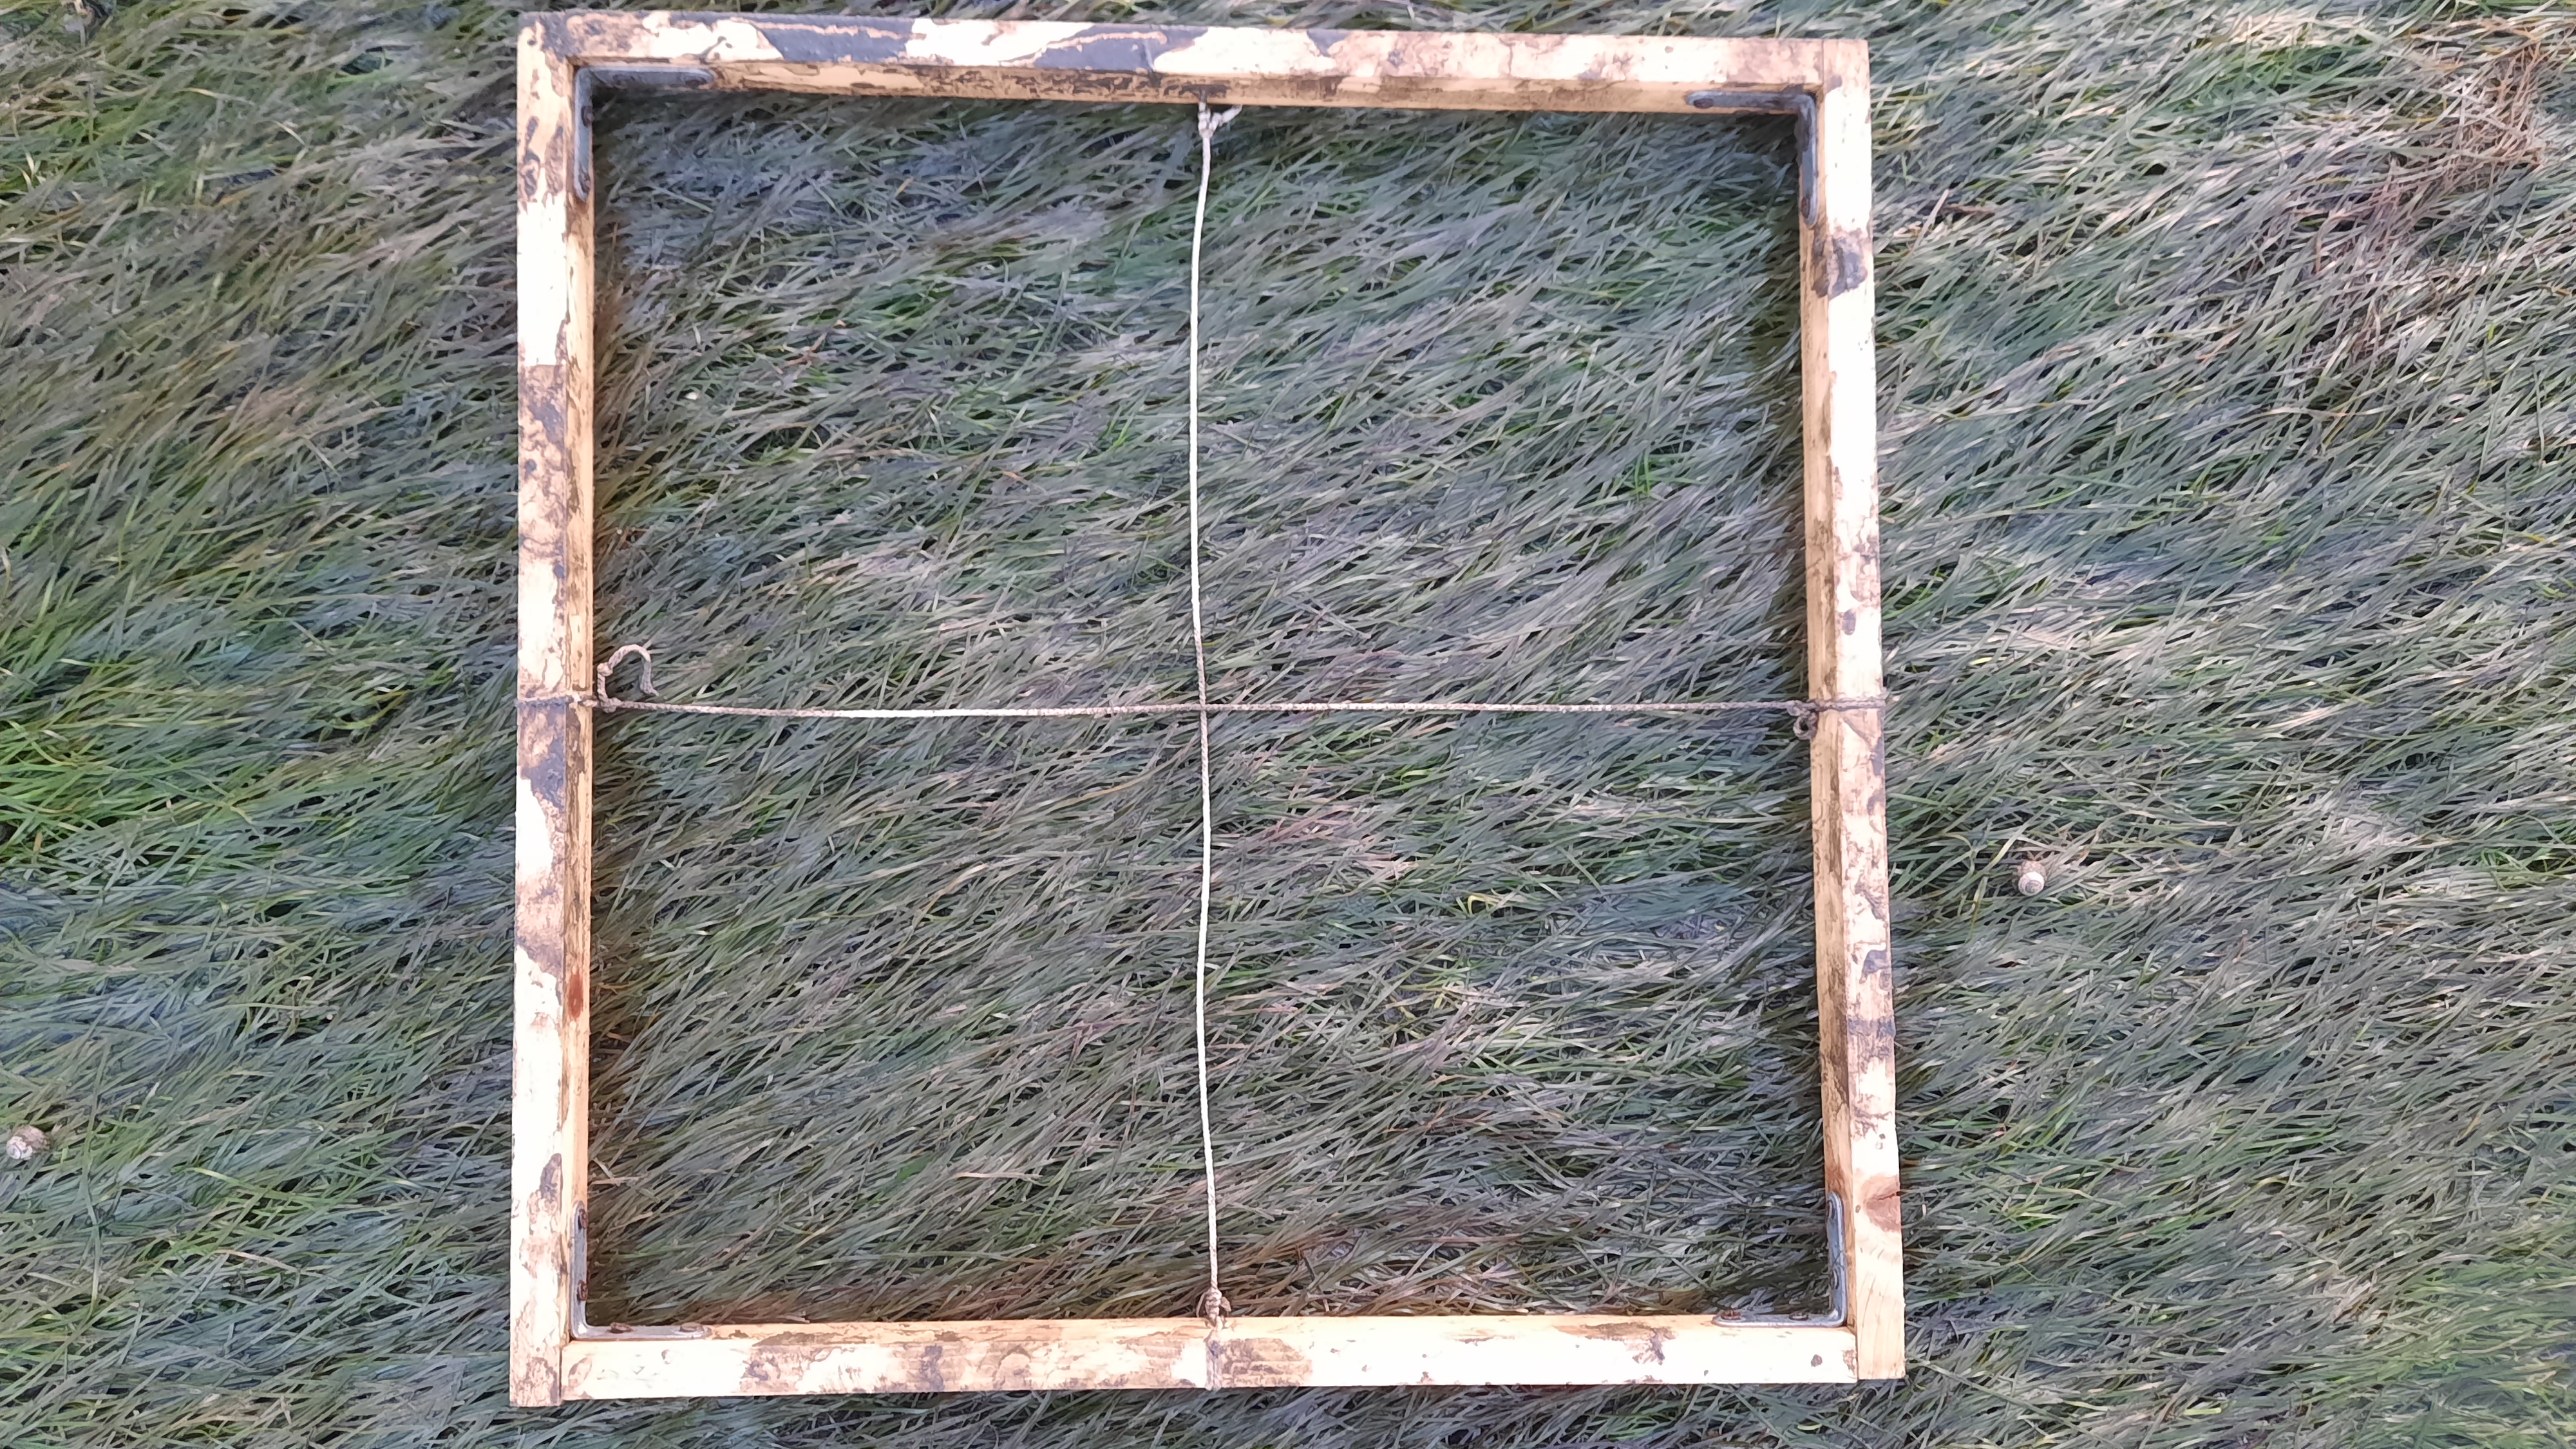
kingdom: Plantae
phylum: Tracheophyta
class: Liliopsida
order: Alismatales
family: Zosteraceae
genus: Zostera
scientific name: Zostera noltii
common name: Dwarf eelgrass
